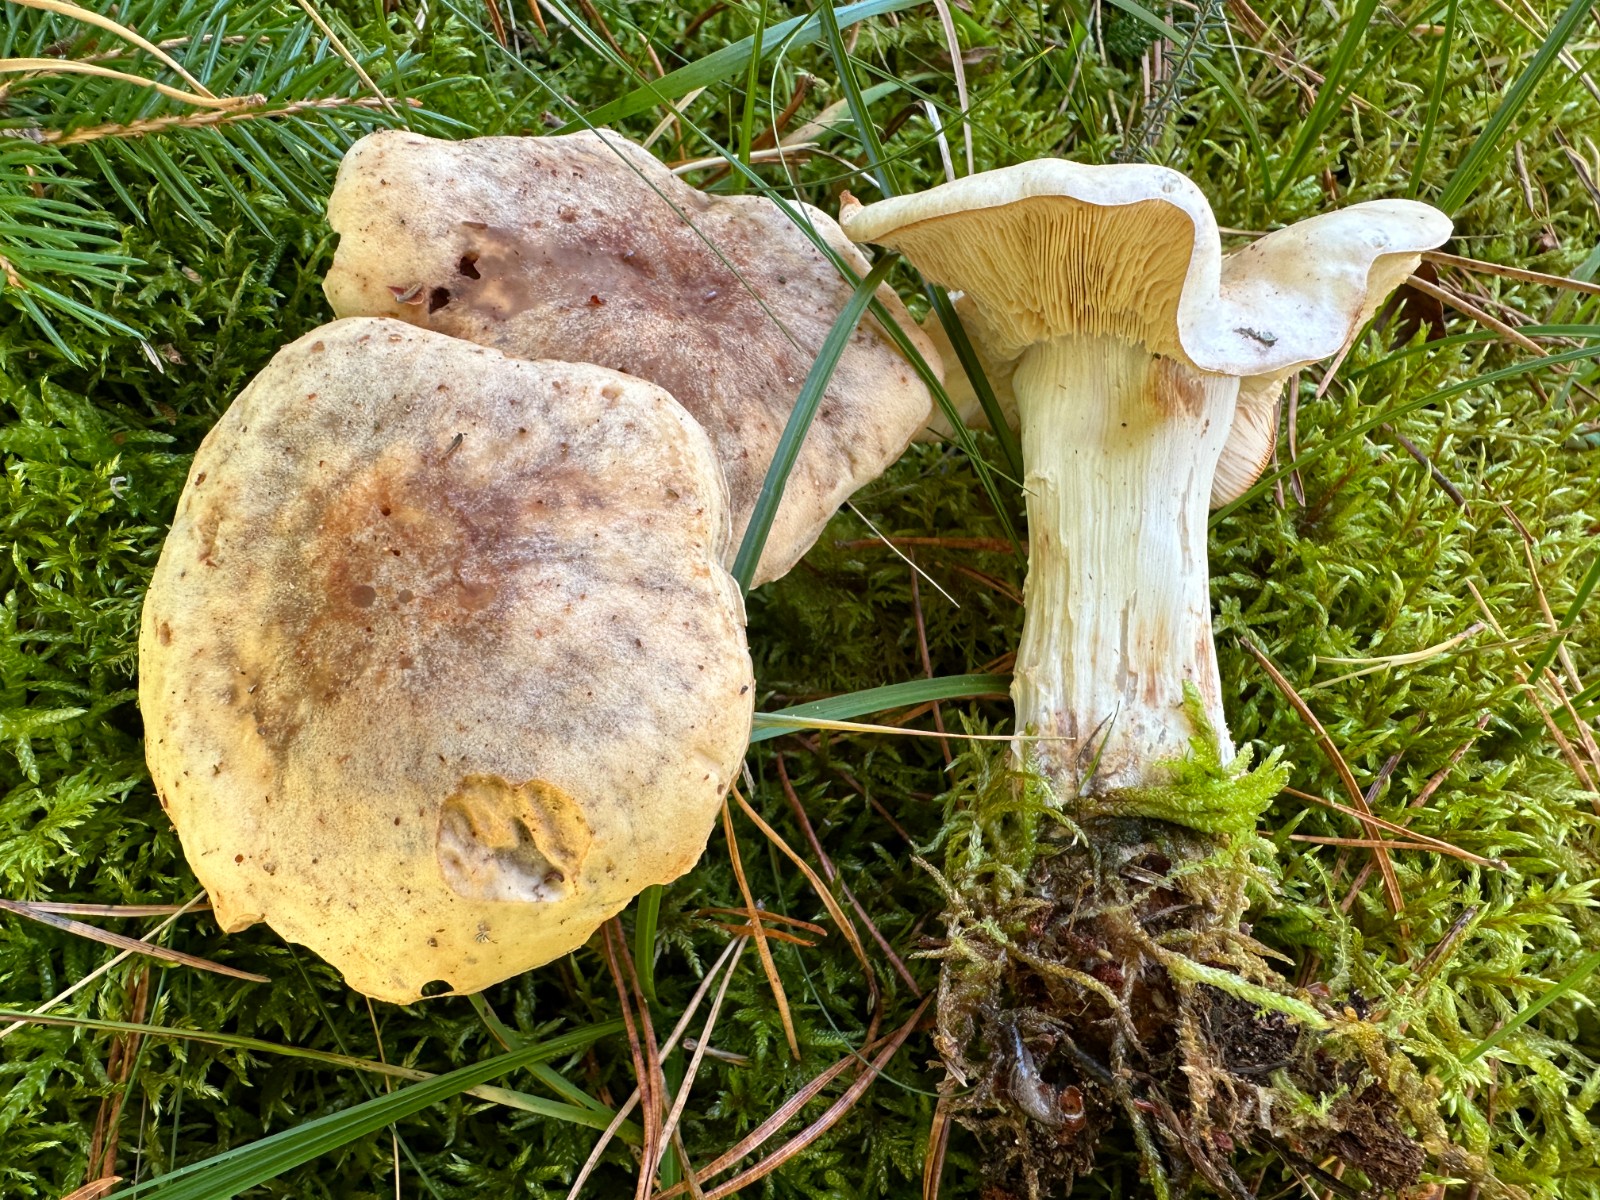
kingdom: Fungi
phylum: Basidiomycota
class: Agaricomycetes
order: Agaricales
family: Omphalotaceae
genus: Rhodocollybia
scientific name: Rhodocollybia maculata
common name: plettet fladhat
